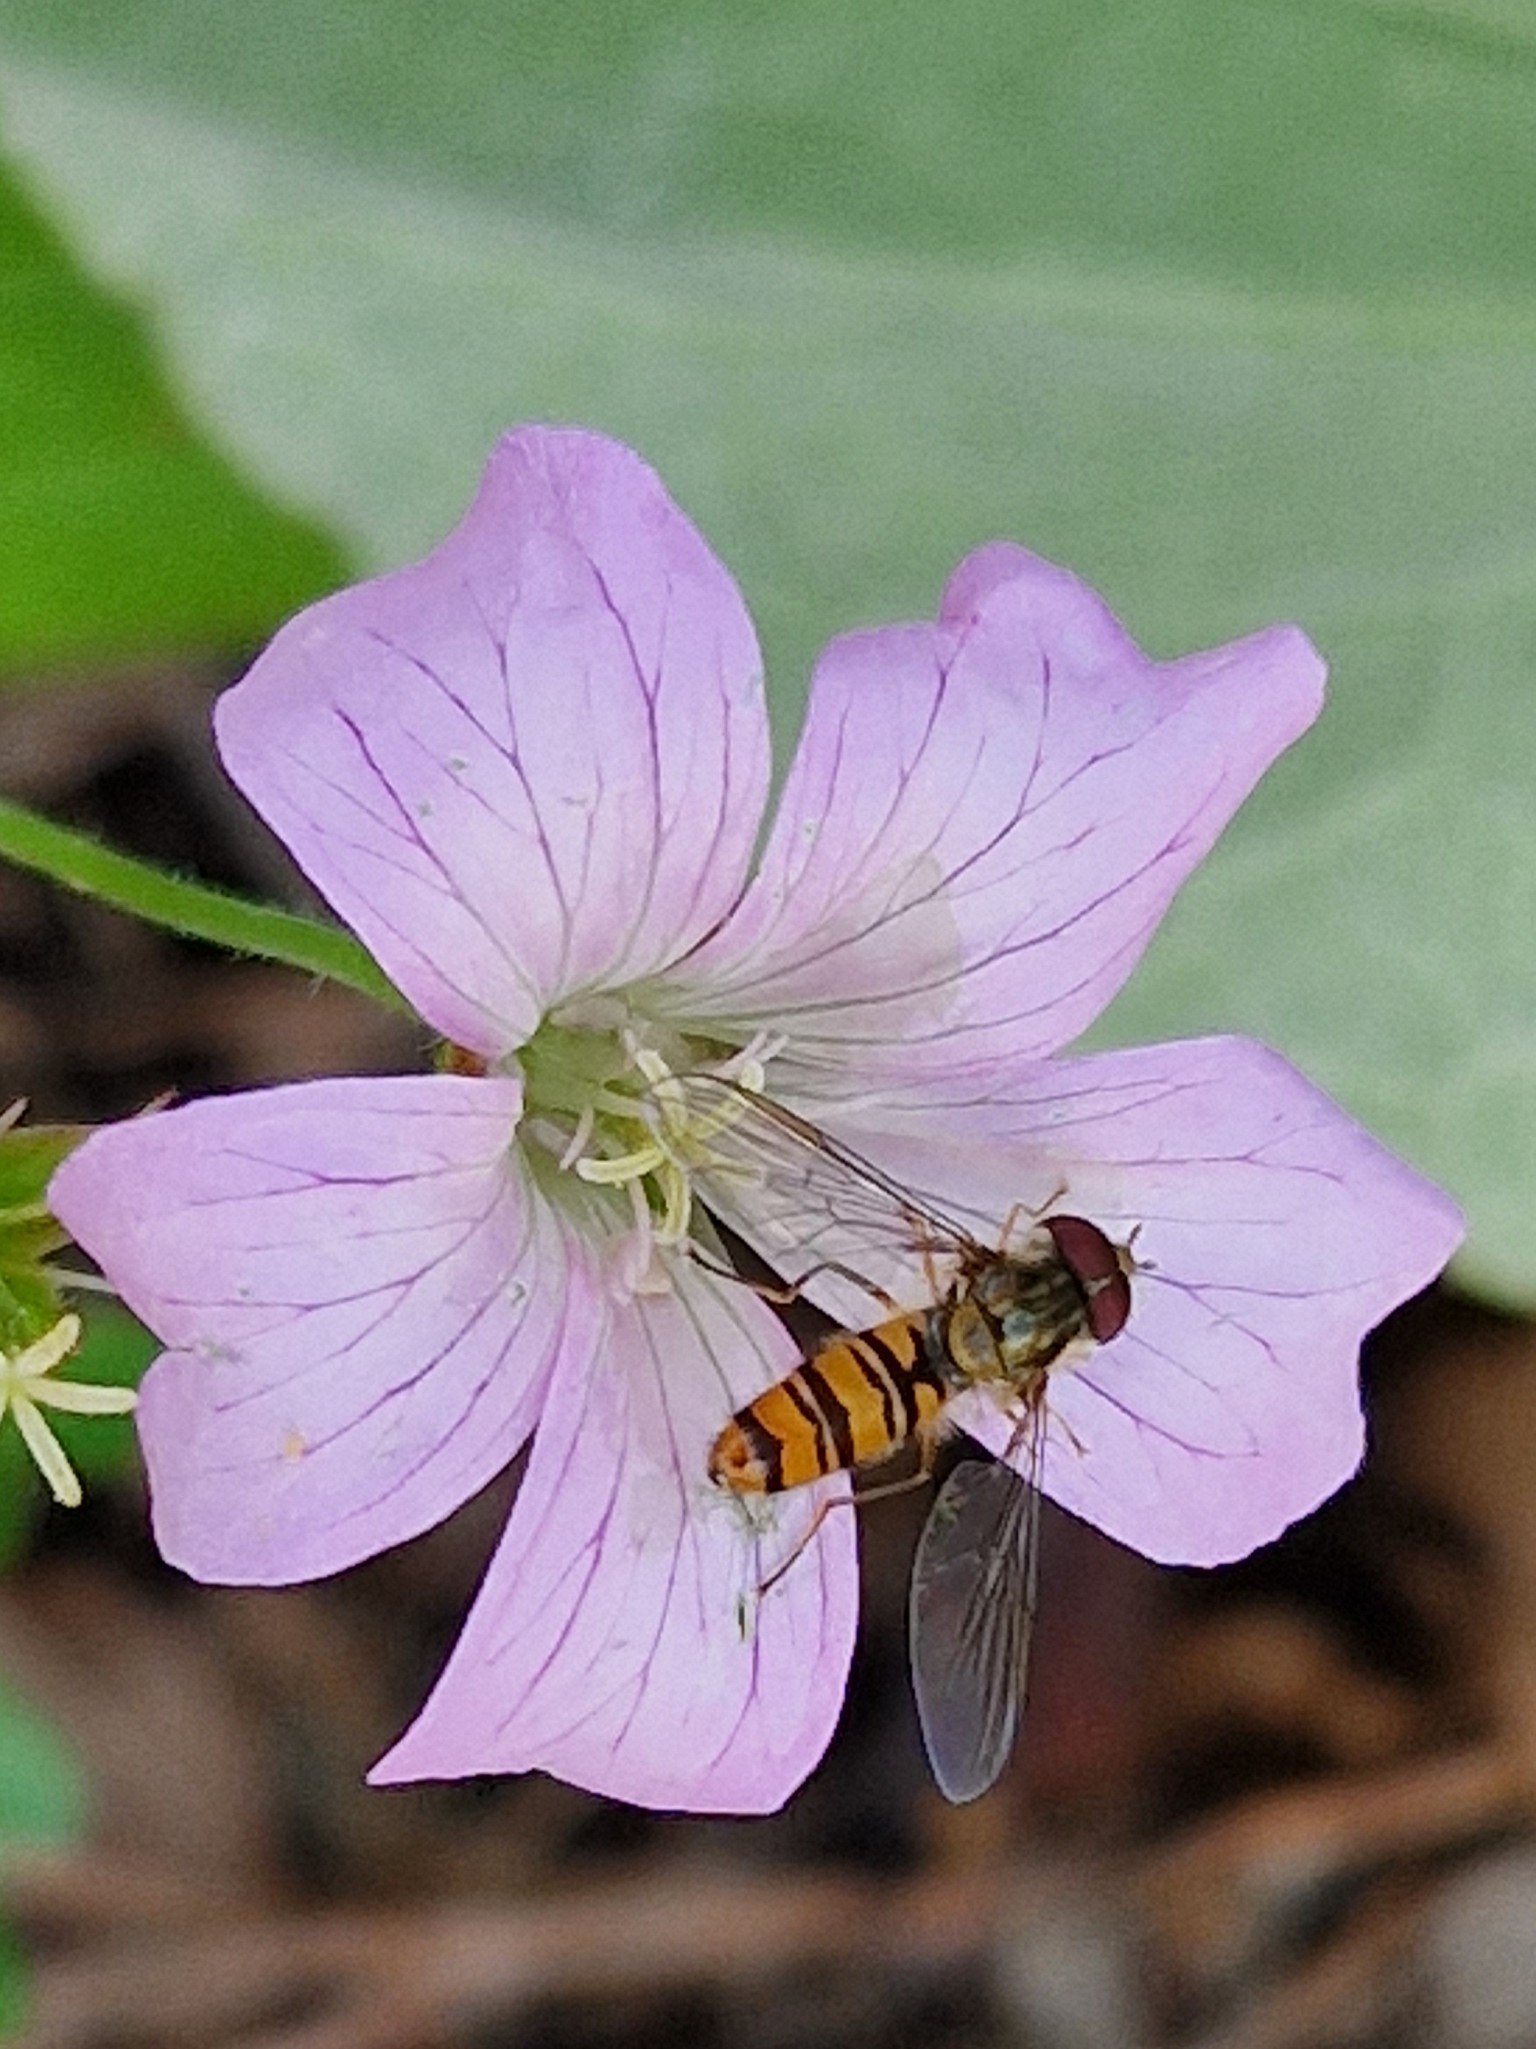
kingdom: Animalia
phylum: Arthropoda
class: Insecta
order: Diptera
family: Syrphidae
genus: Episyrphus
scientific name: Episyrphus balteatus
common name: Dobbeltbåndet svirreflue
